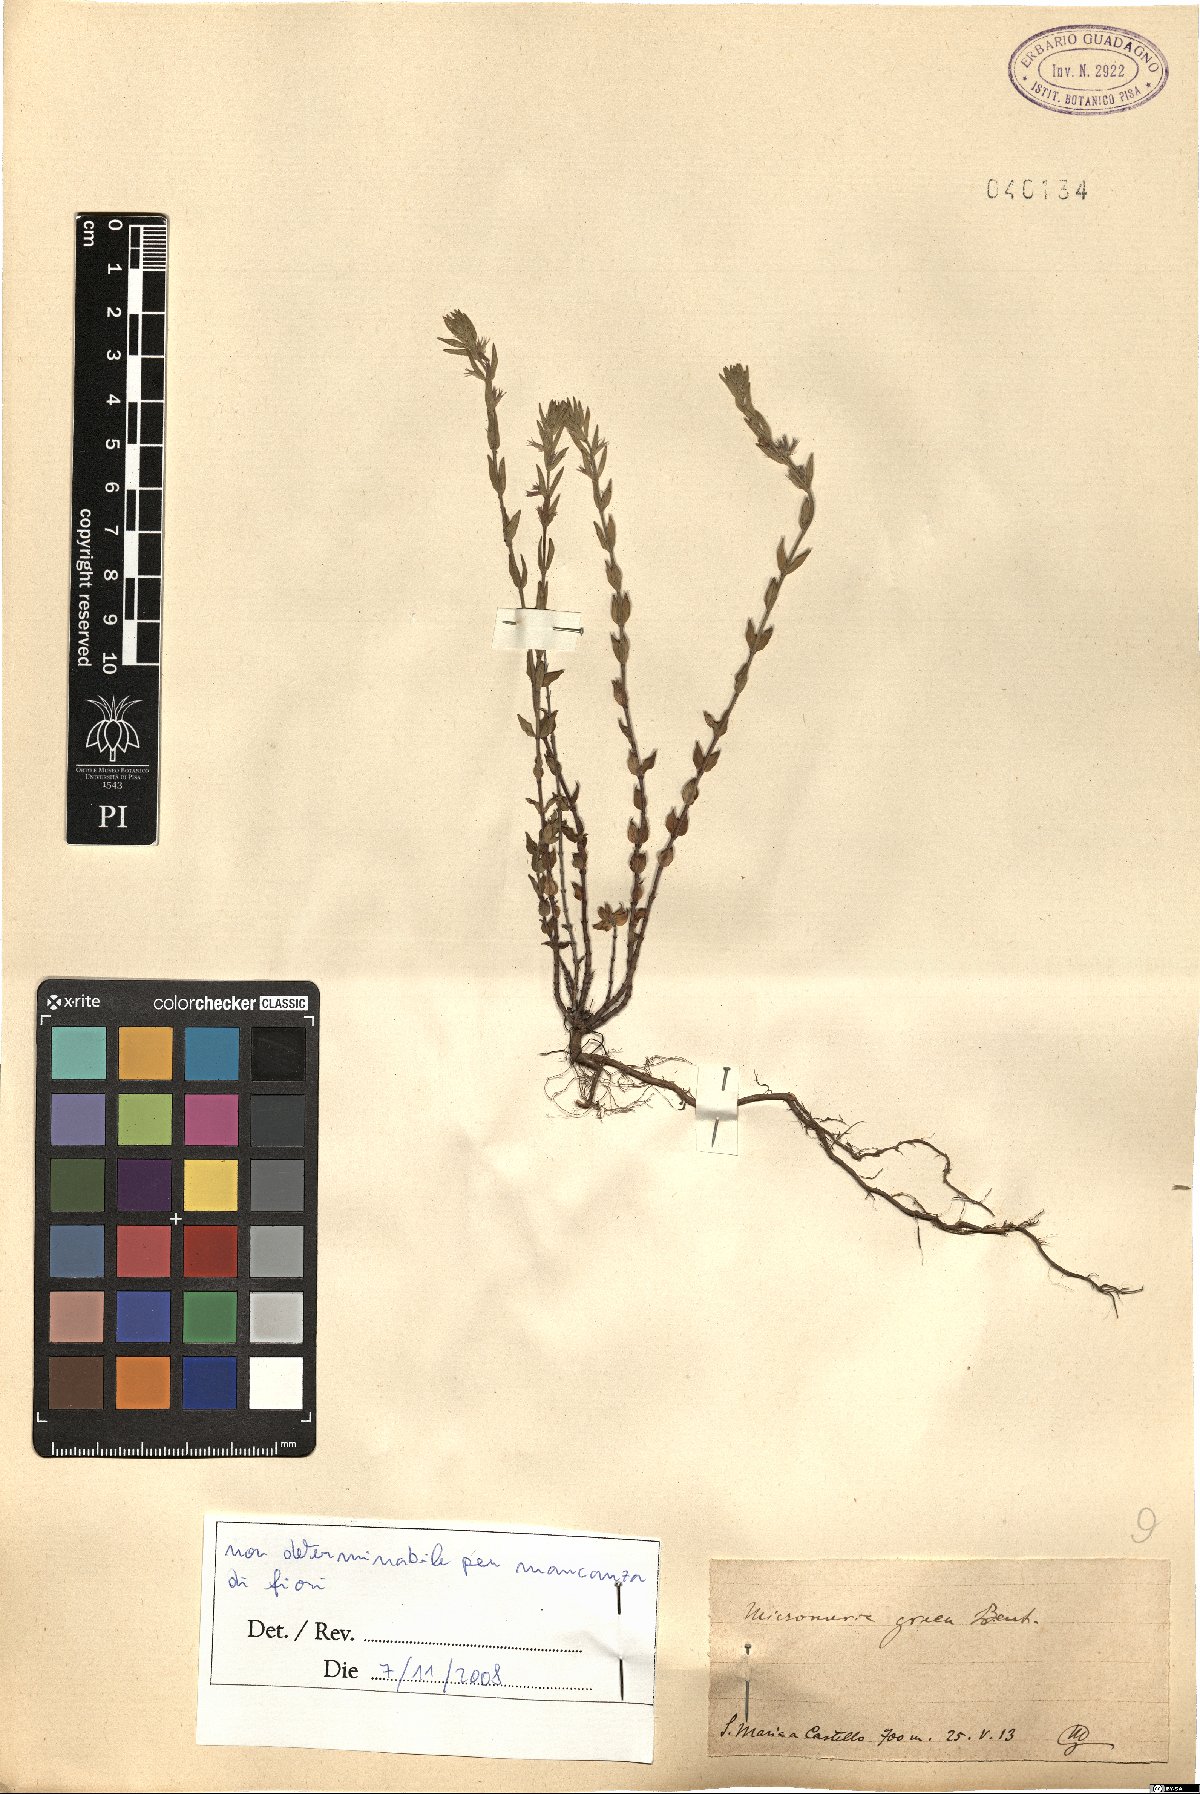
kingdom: Plantae
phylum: Tracheophyta
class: Magnoliopsida
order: Lamiales
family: Lamiaceae
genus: Micromeria
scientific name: Micromeria graeca
